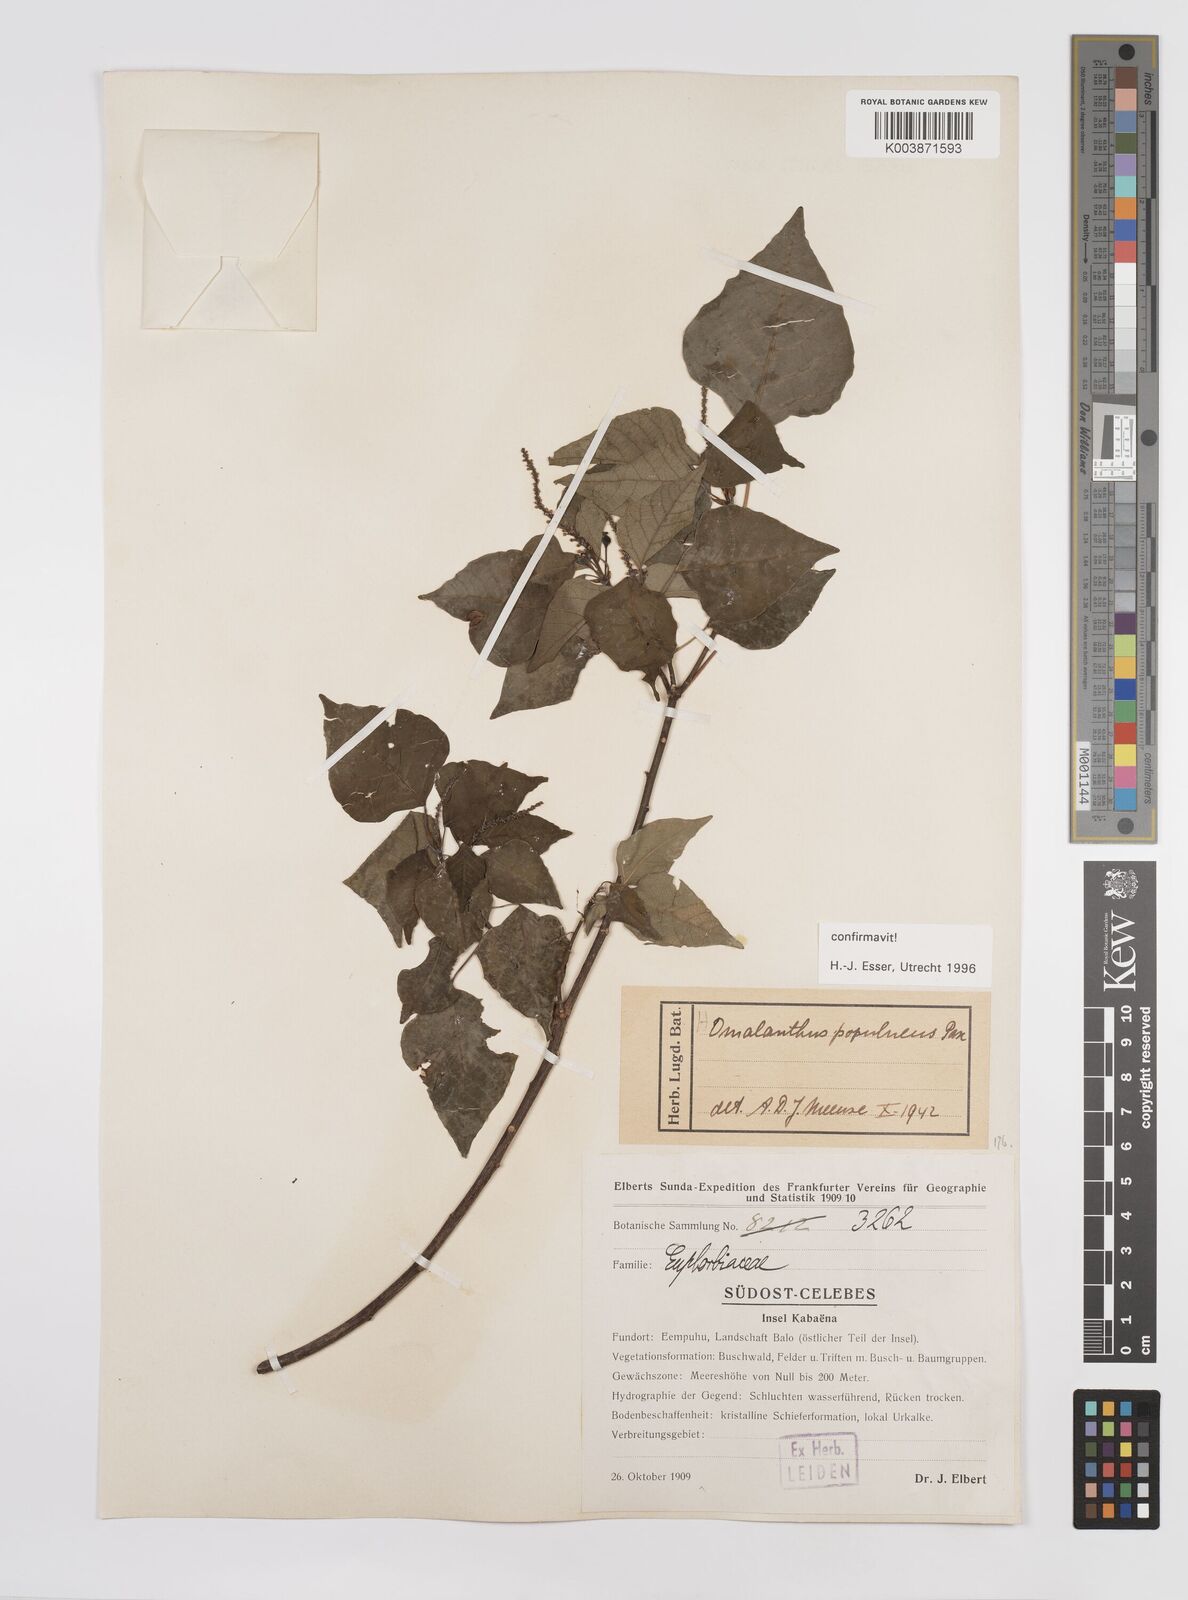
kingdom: Plantae
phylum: Tracheophyta
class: Magnoliopsida
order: Malpighiales
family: Euphorbiaceae
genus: Homalanthus
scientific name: Homalanthus populneus
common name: Spurge
